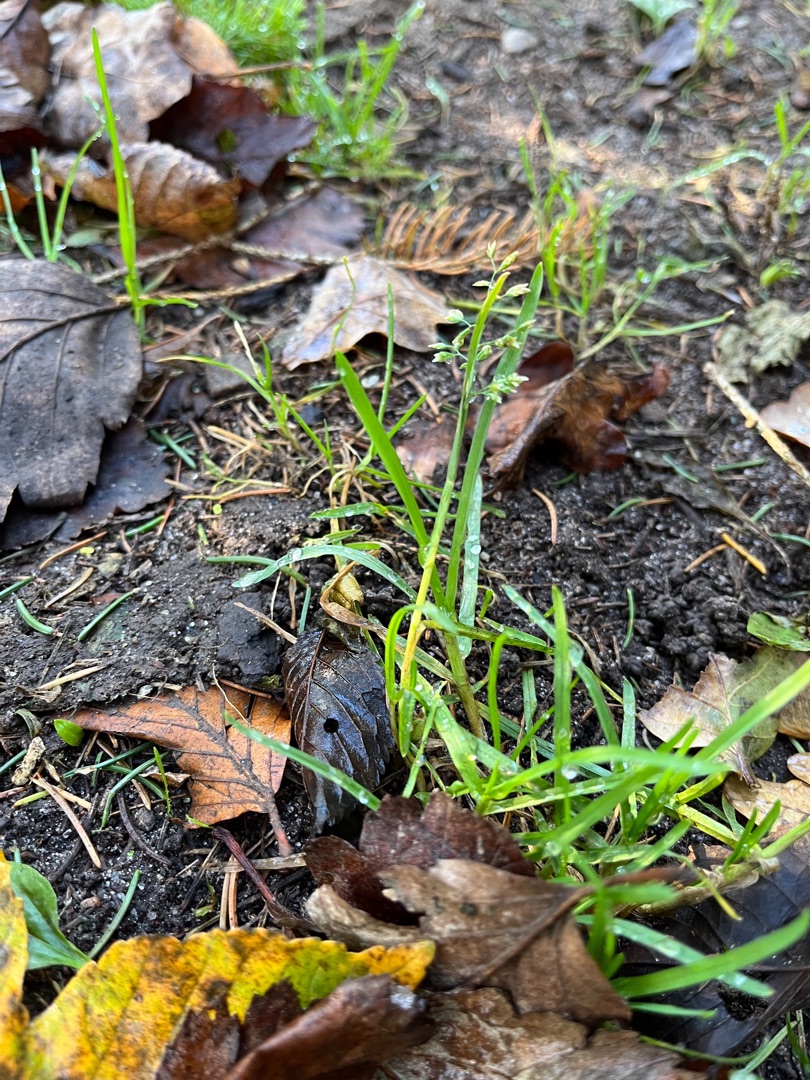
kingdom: Plantae
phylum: Tracheophyta
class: Liliopsida
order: Poales
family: Poaceae
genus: Poa
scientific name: Poa annua
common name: Enårig rapgræs
